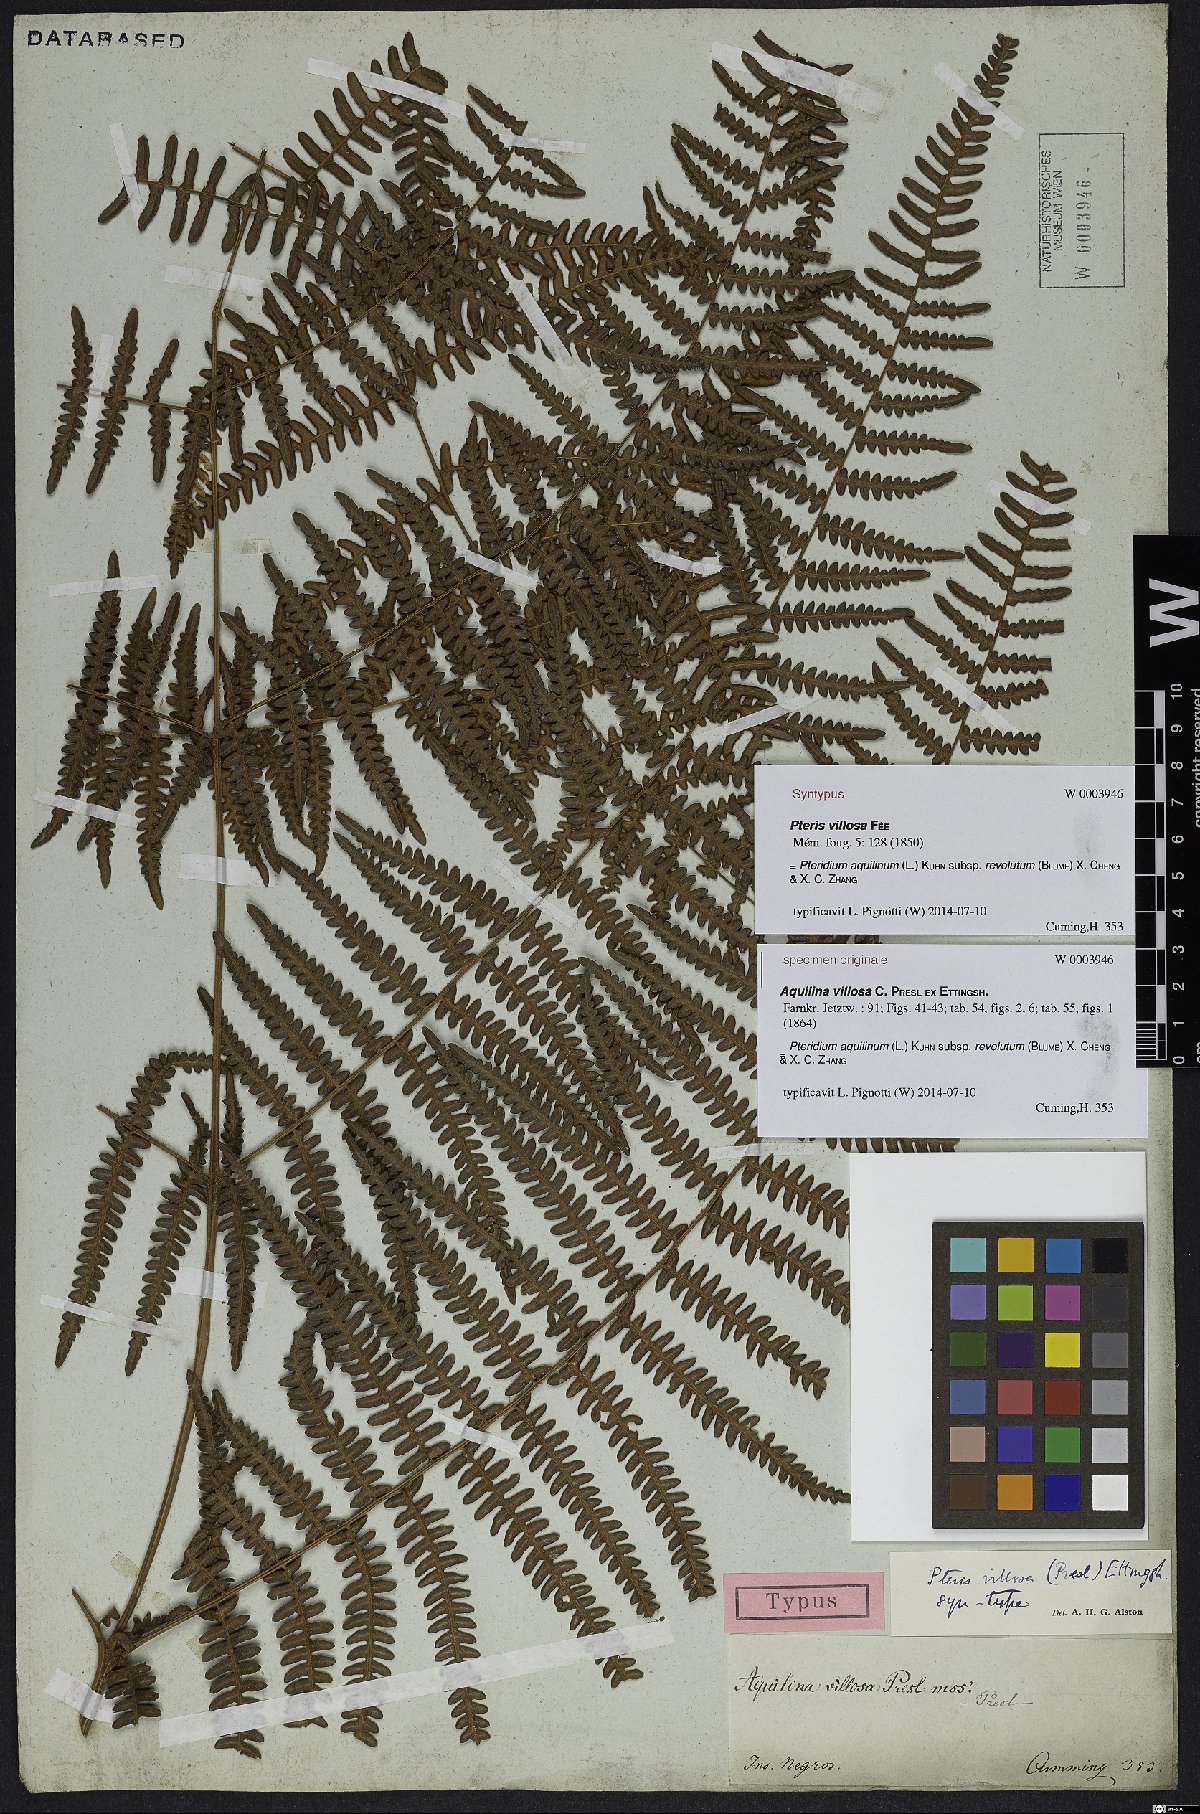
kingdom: Plantae
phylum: Tracheophyta
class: Polypodiopsida
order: Polypodiales
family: Dennstaedtiaceae
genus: Pteridium
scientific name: Pteridium aquilinum
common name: Bracken
